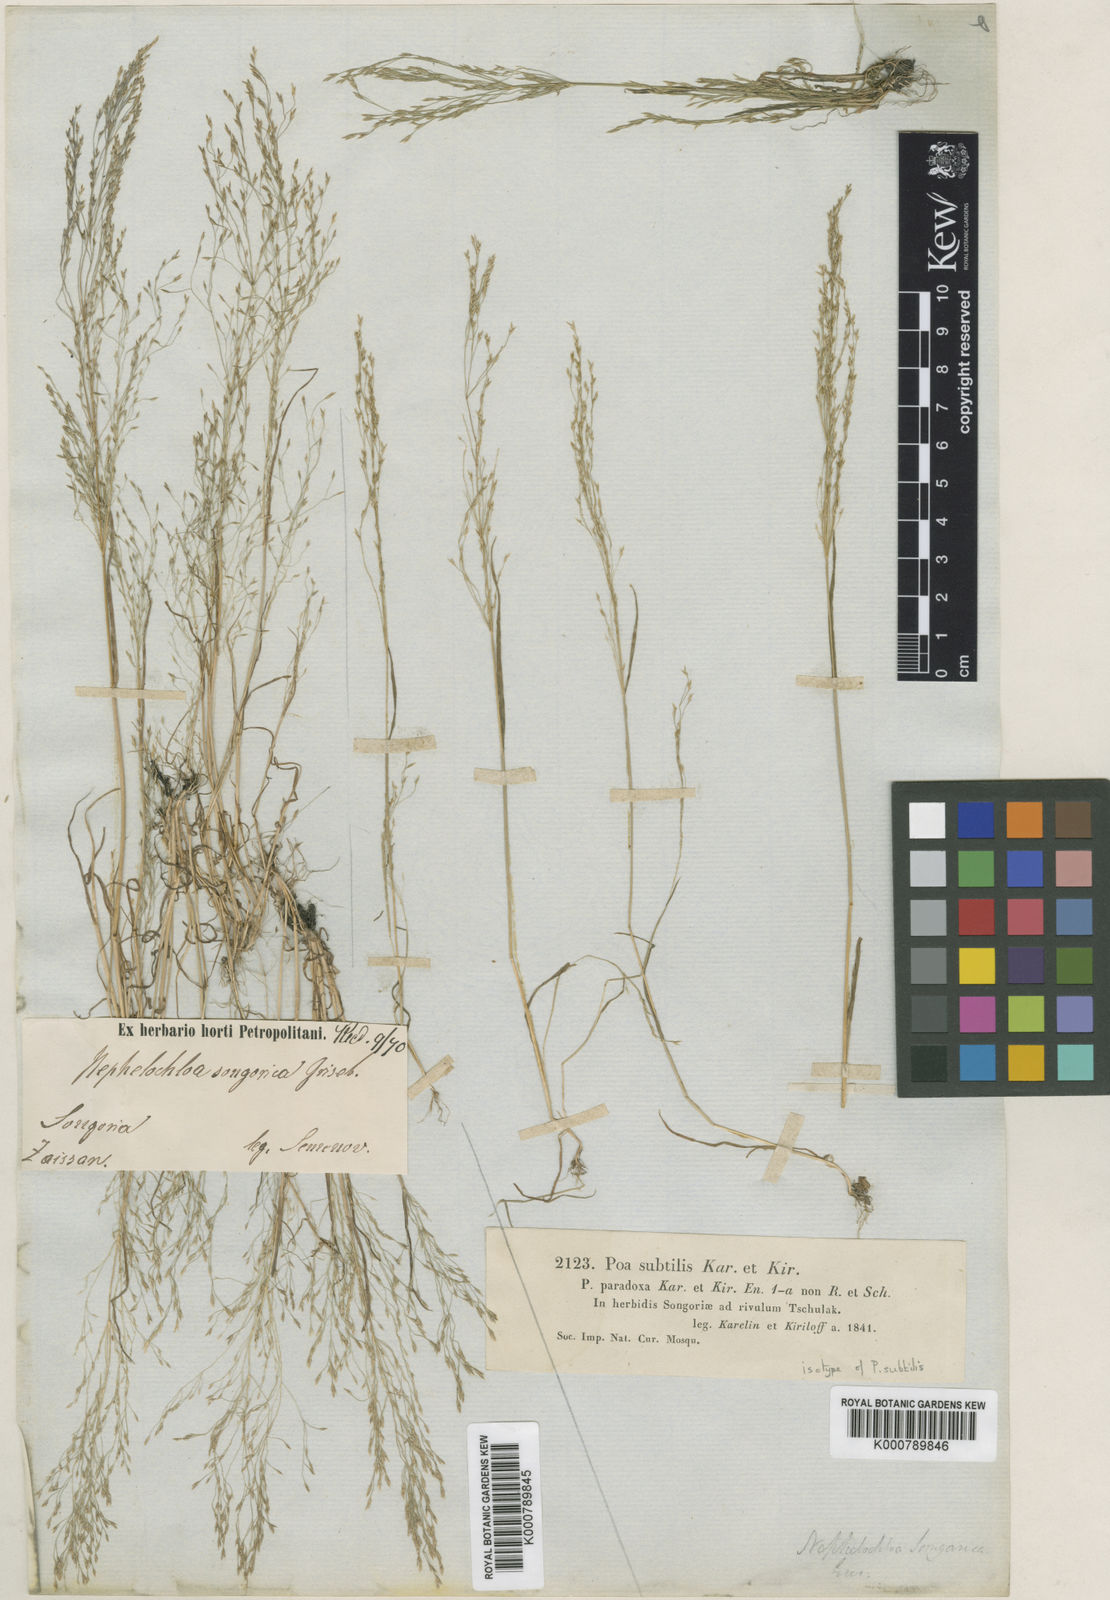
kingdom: Plantae
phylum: Tracheophyta
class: Liliopsida
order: Poales
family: Poaceae
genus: Poa
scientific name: Poa diaphora
